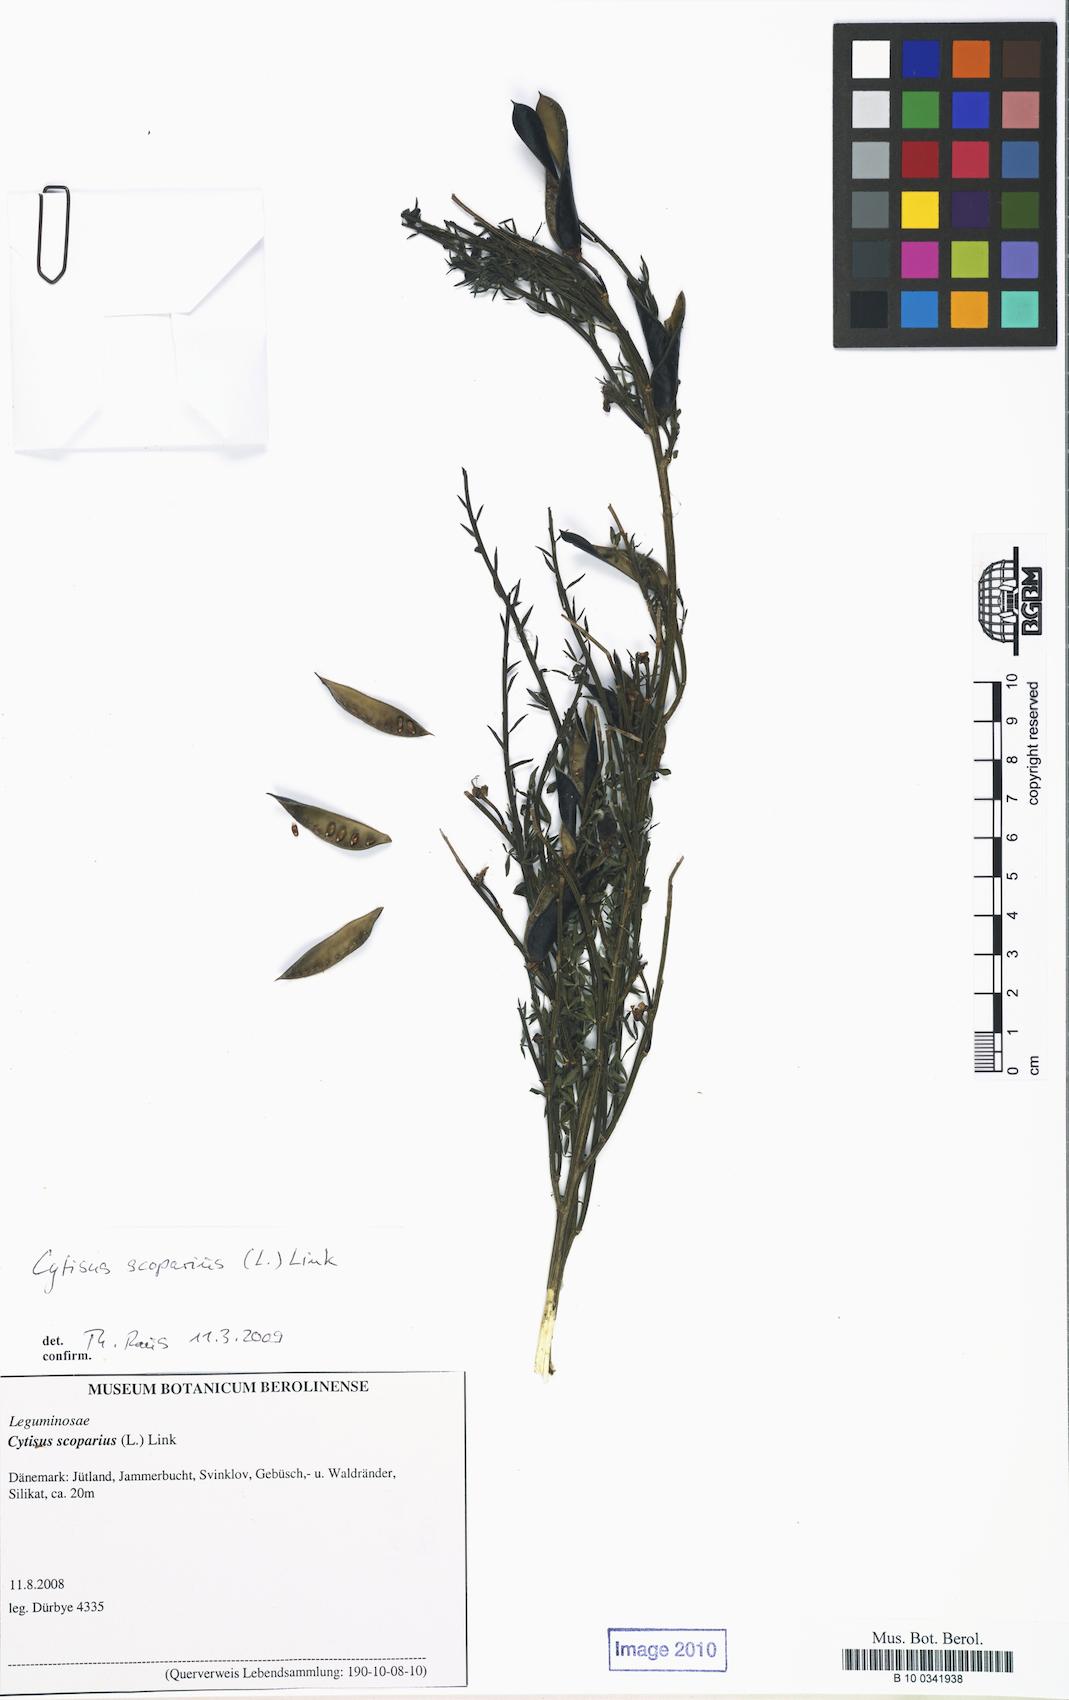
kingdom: Plantae
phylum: Tracheophyta
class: Magnoliopsida
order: Fabales
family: Fabaceae
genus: Cytisus
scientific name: Cytisus scoparius
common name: Scotch broom
